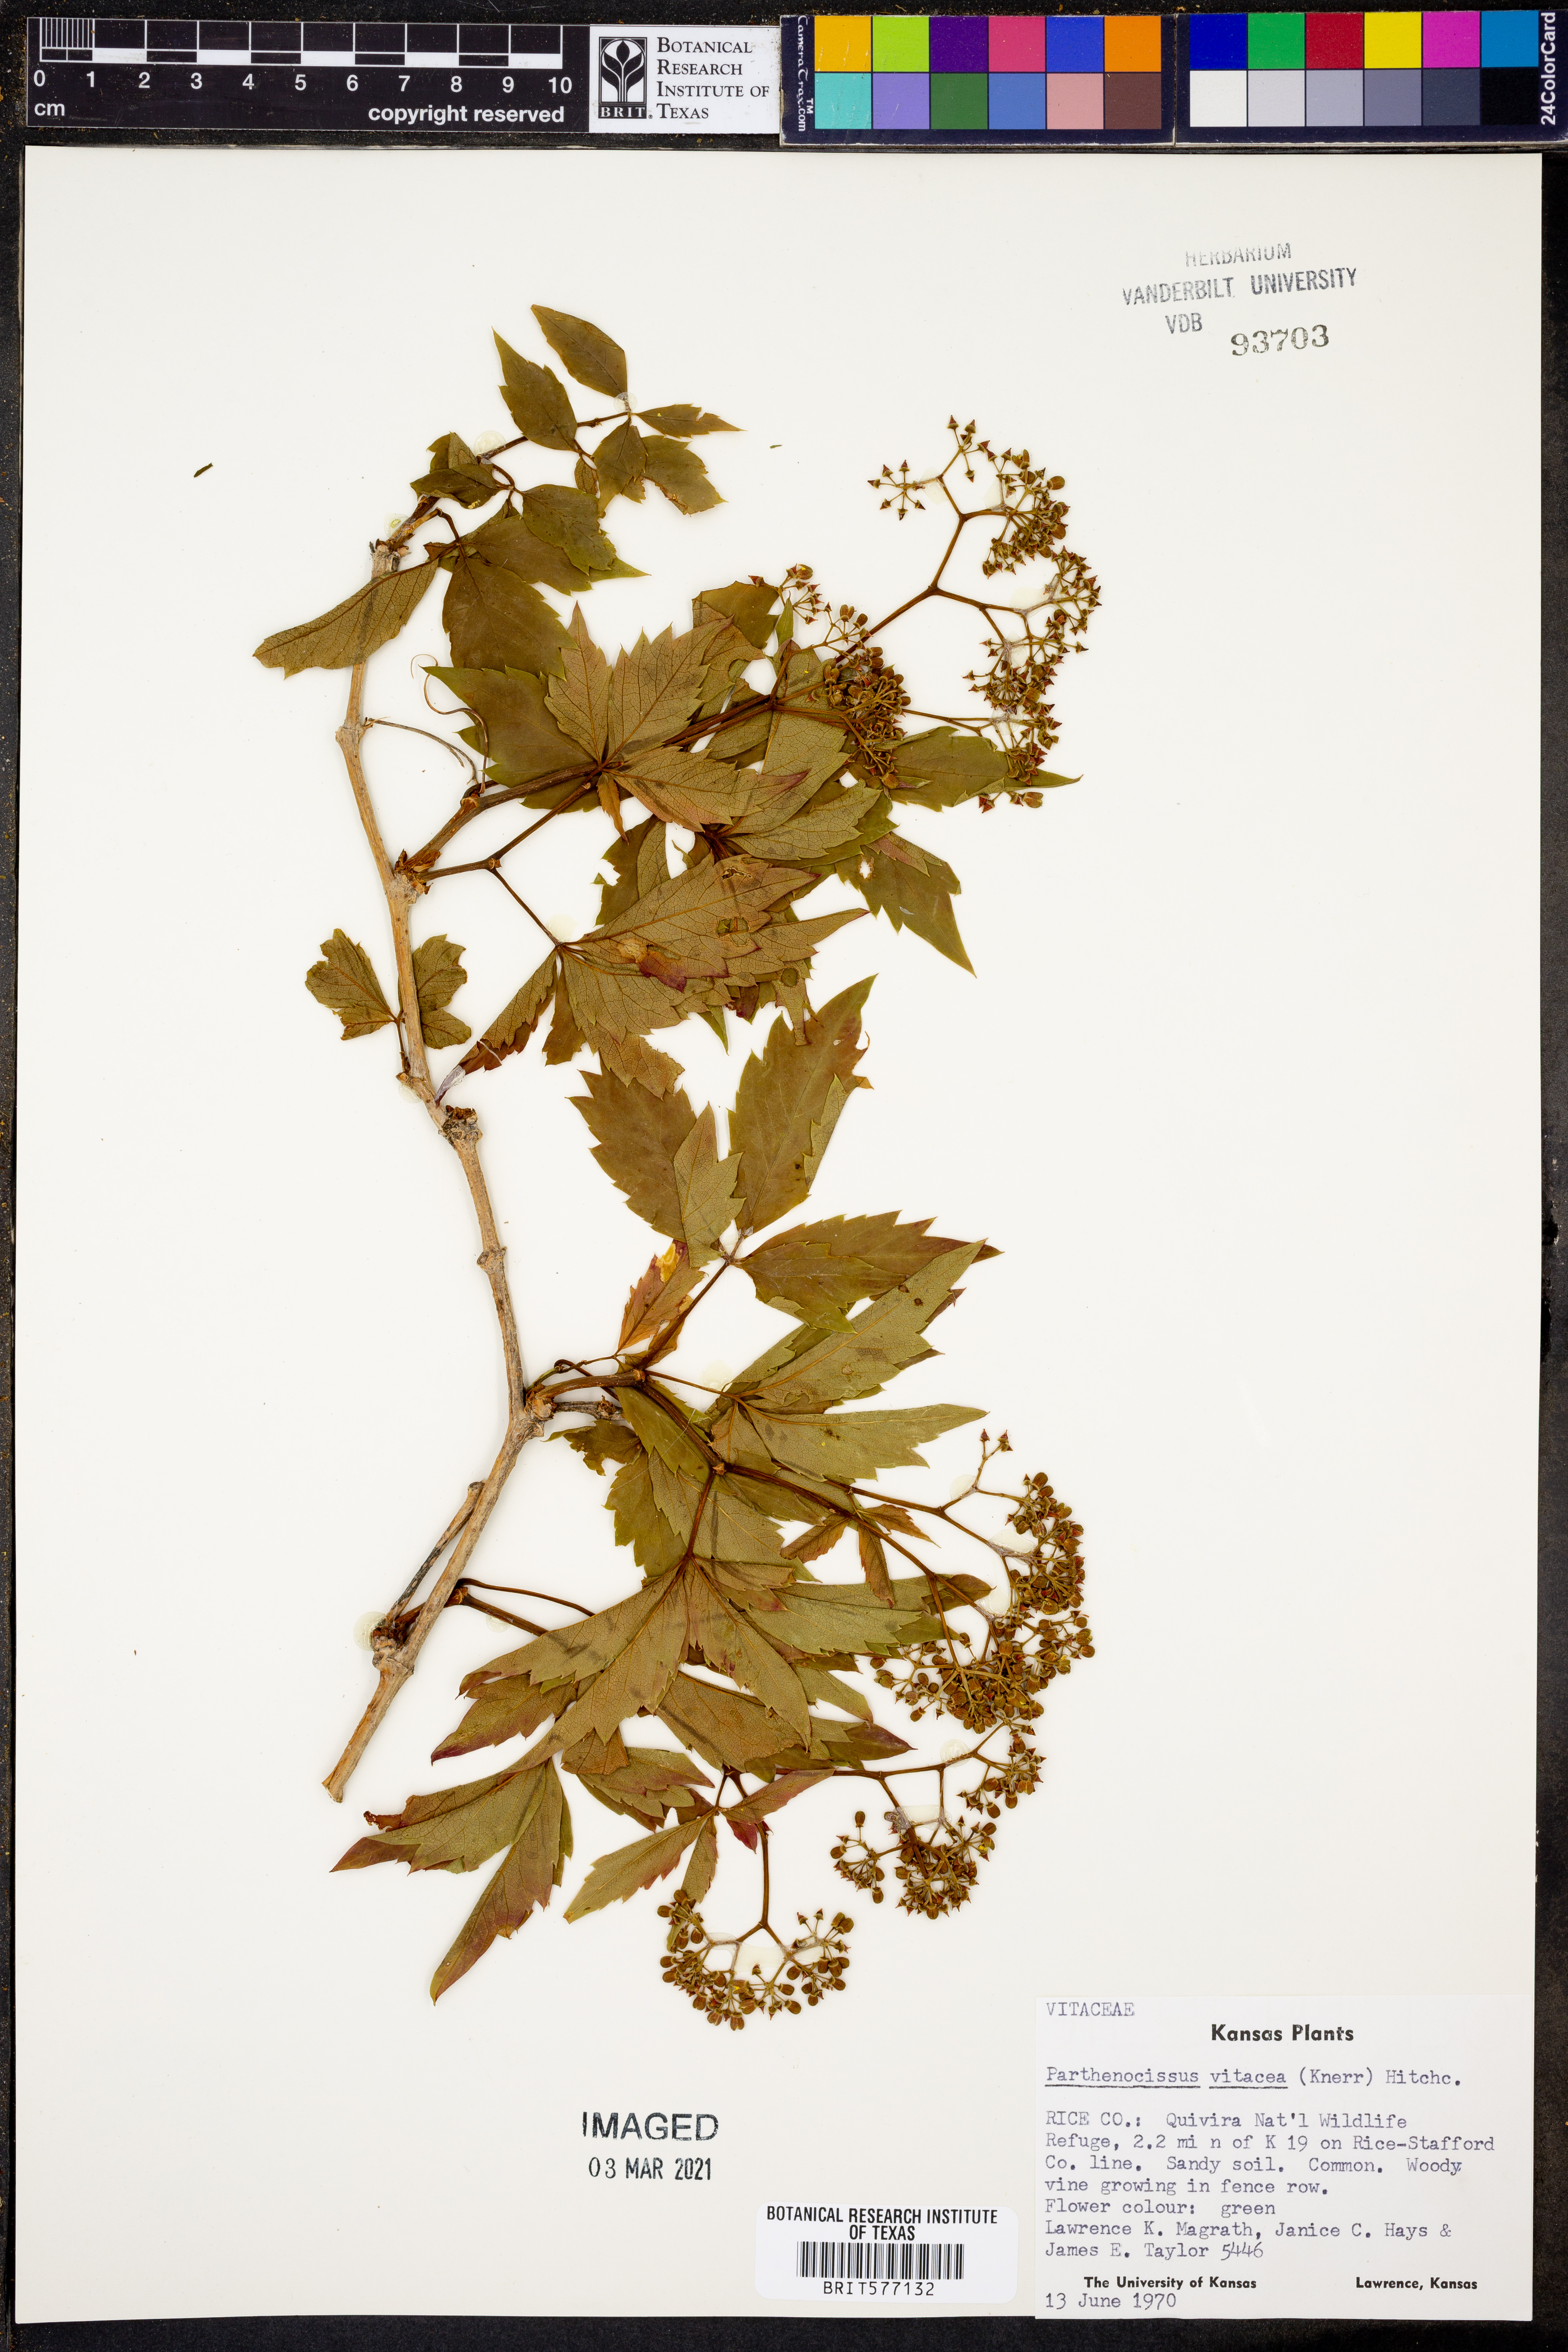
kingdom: Plantae
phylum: Tracheophyta
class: Magnoliopsida
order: Vitales
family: Vitaceae
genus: Parthenocissus
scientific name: Parthenocissus inserta
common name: False virginia-creeper
